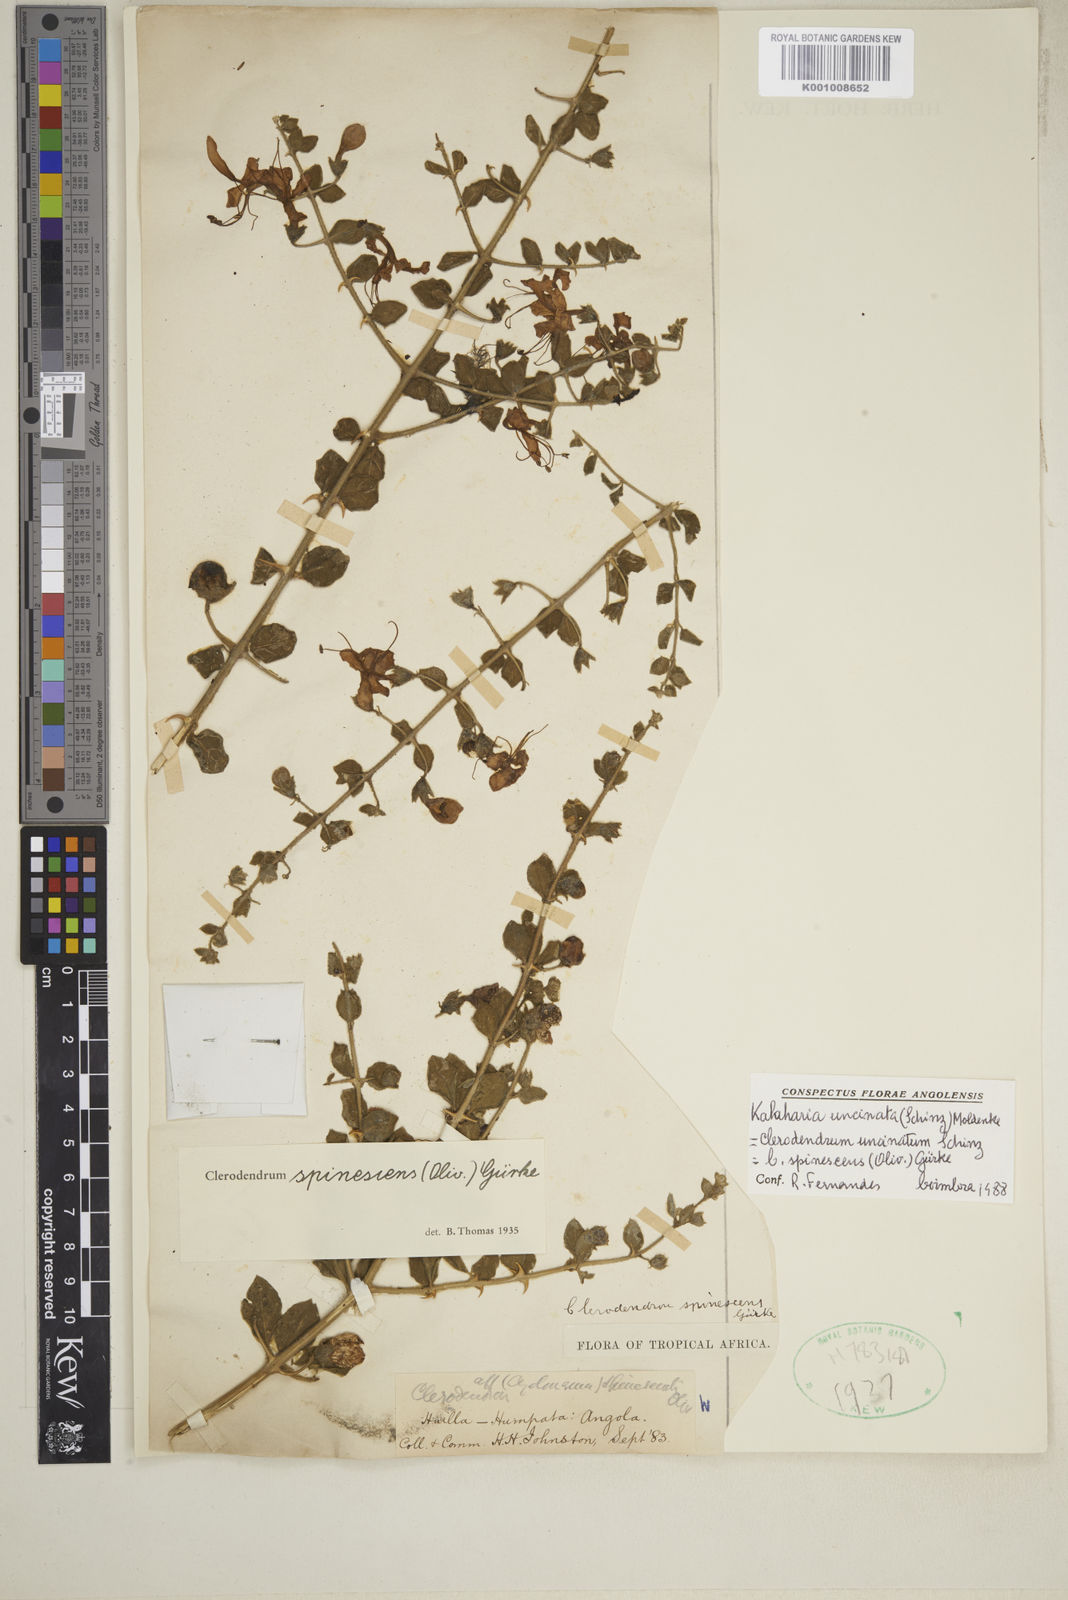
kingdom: Plantae
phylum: Tracheophyta
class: Magnoliopsida
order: Lamiales
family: Lamiaceae
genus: Kalaharia
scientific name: Kalaharia uncinata
